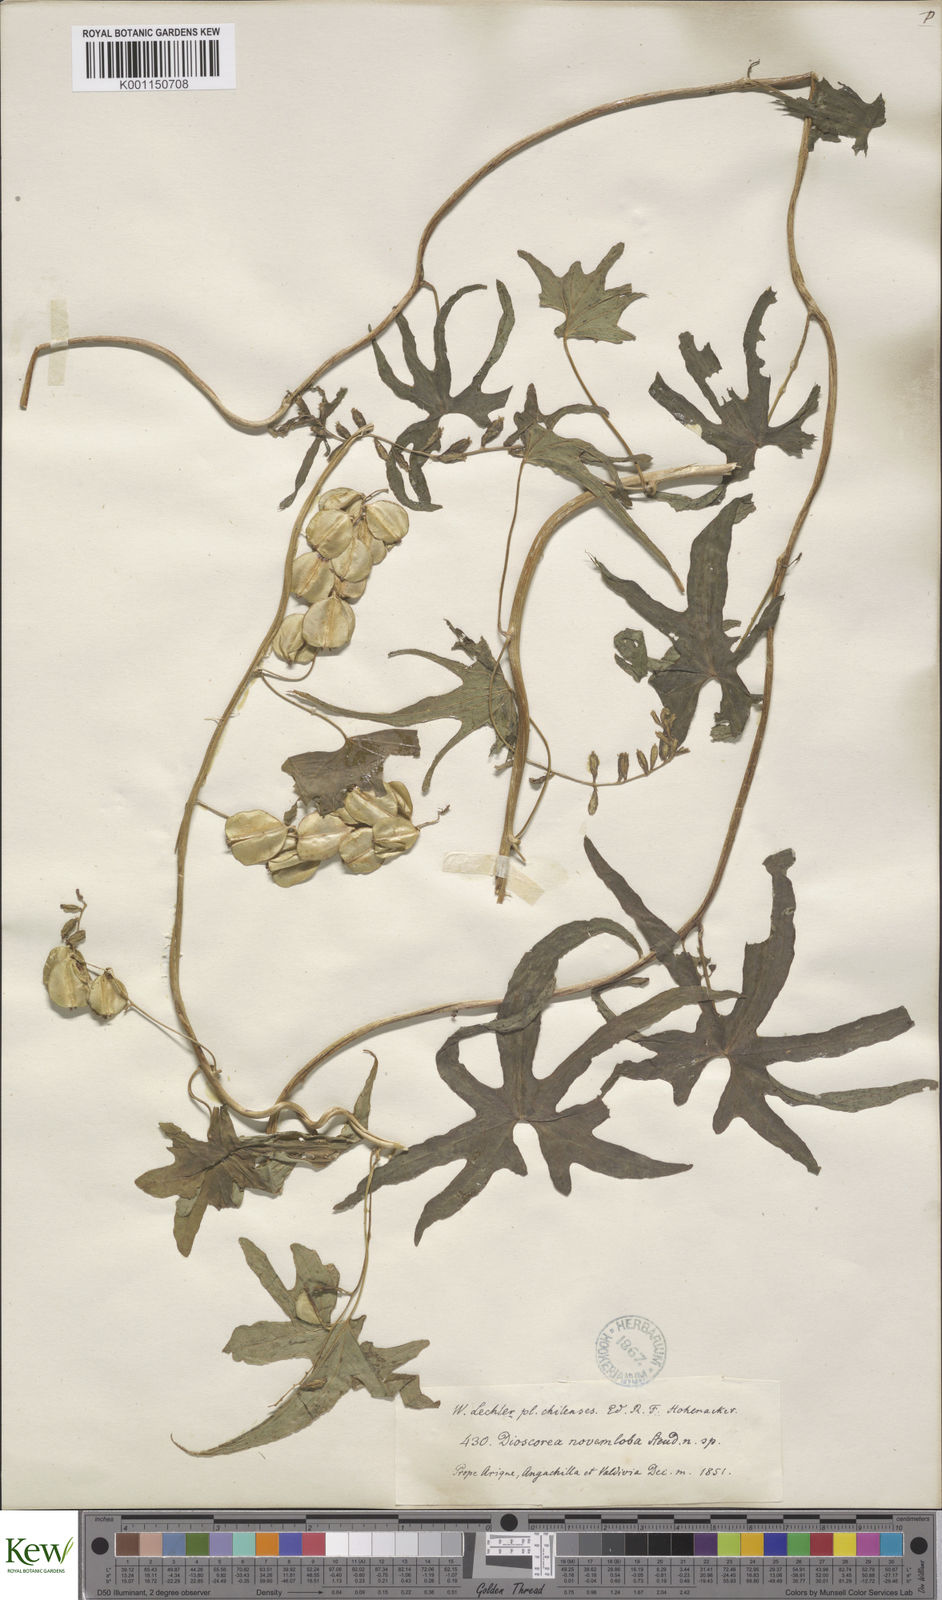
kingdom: Plantae
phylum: Tracheophyta
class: Liliopsida
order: Dioscoreales
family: Dioscoreaceae
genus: Dioscorea
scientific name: Dioscorea brachybotrya
